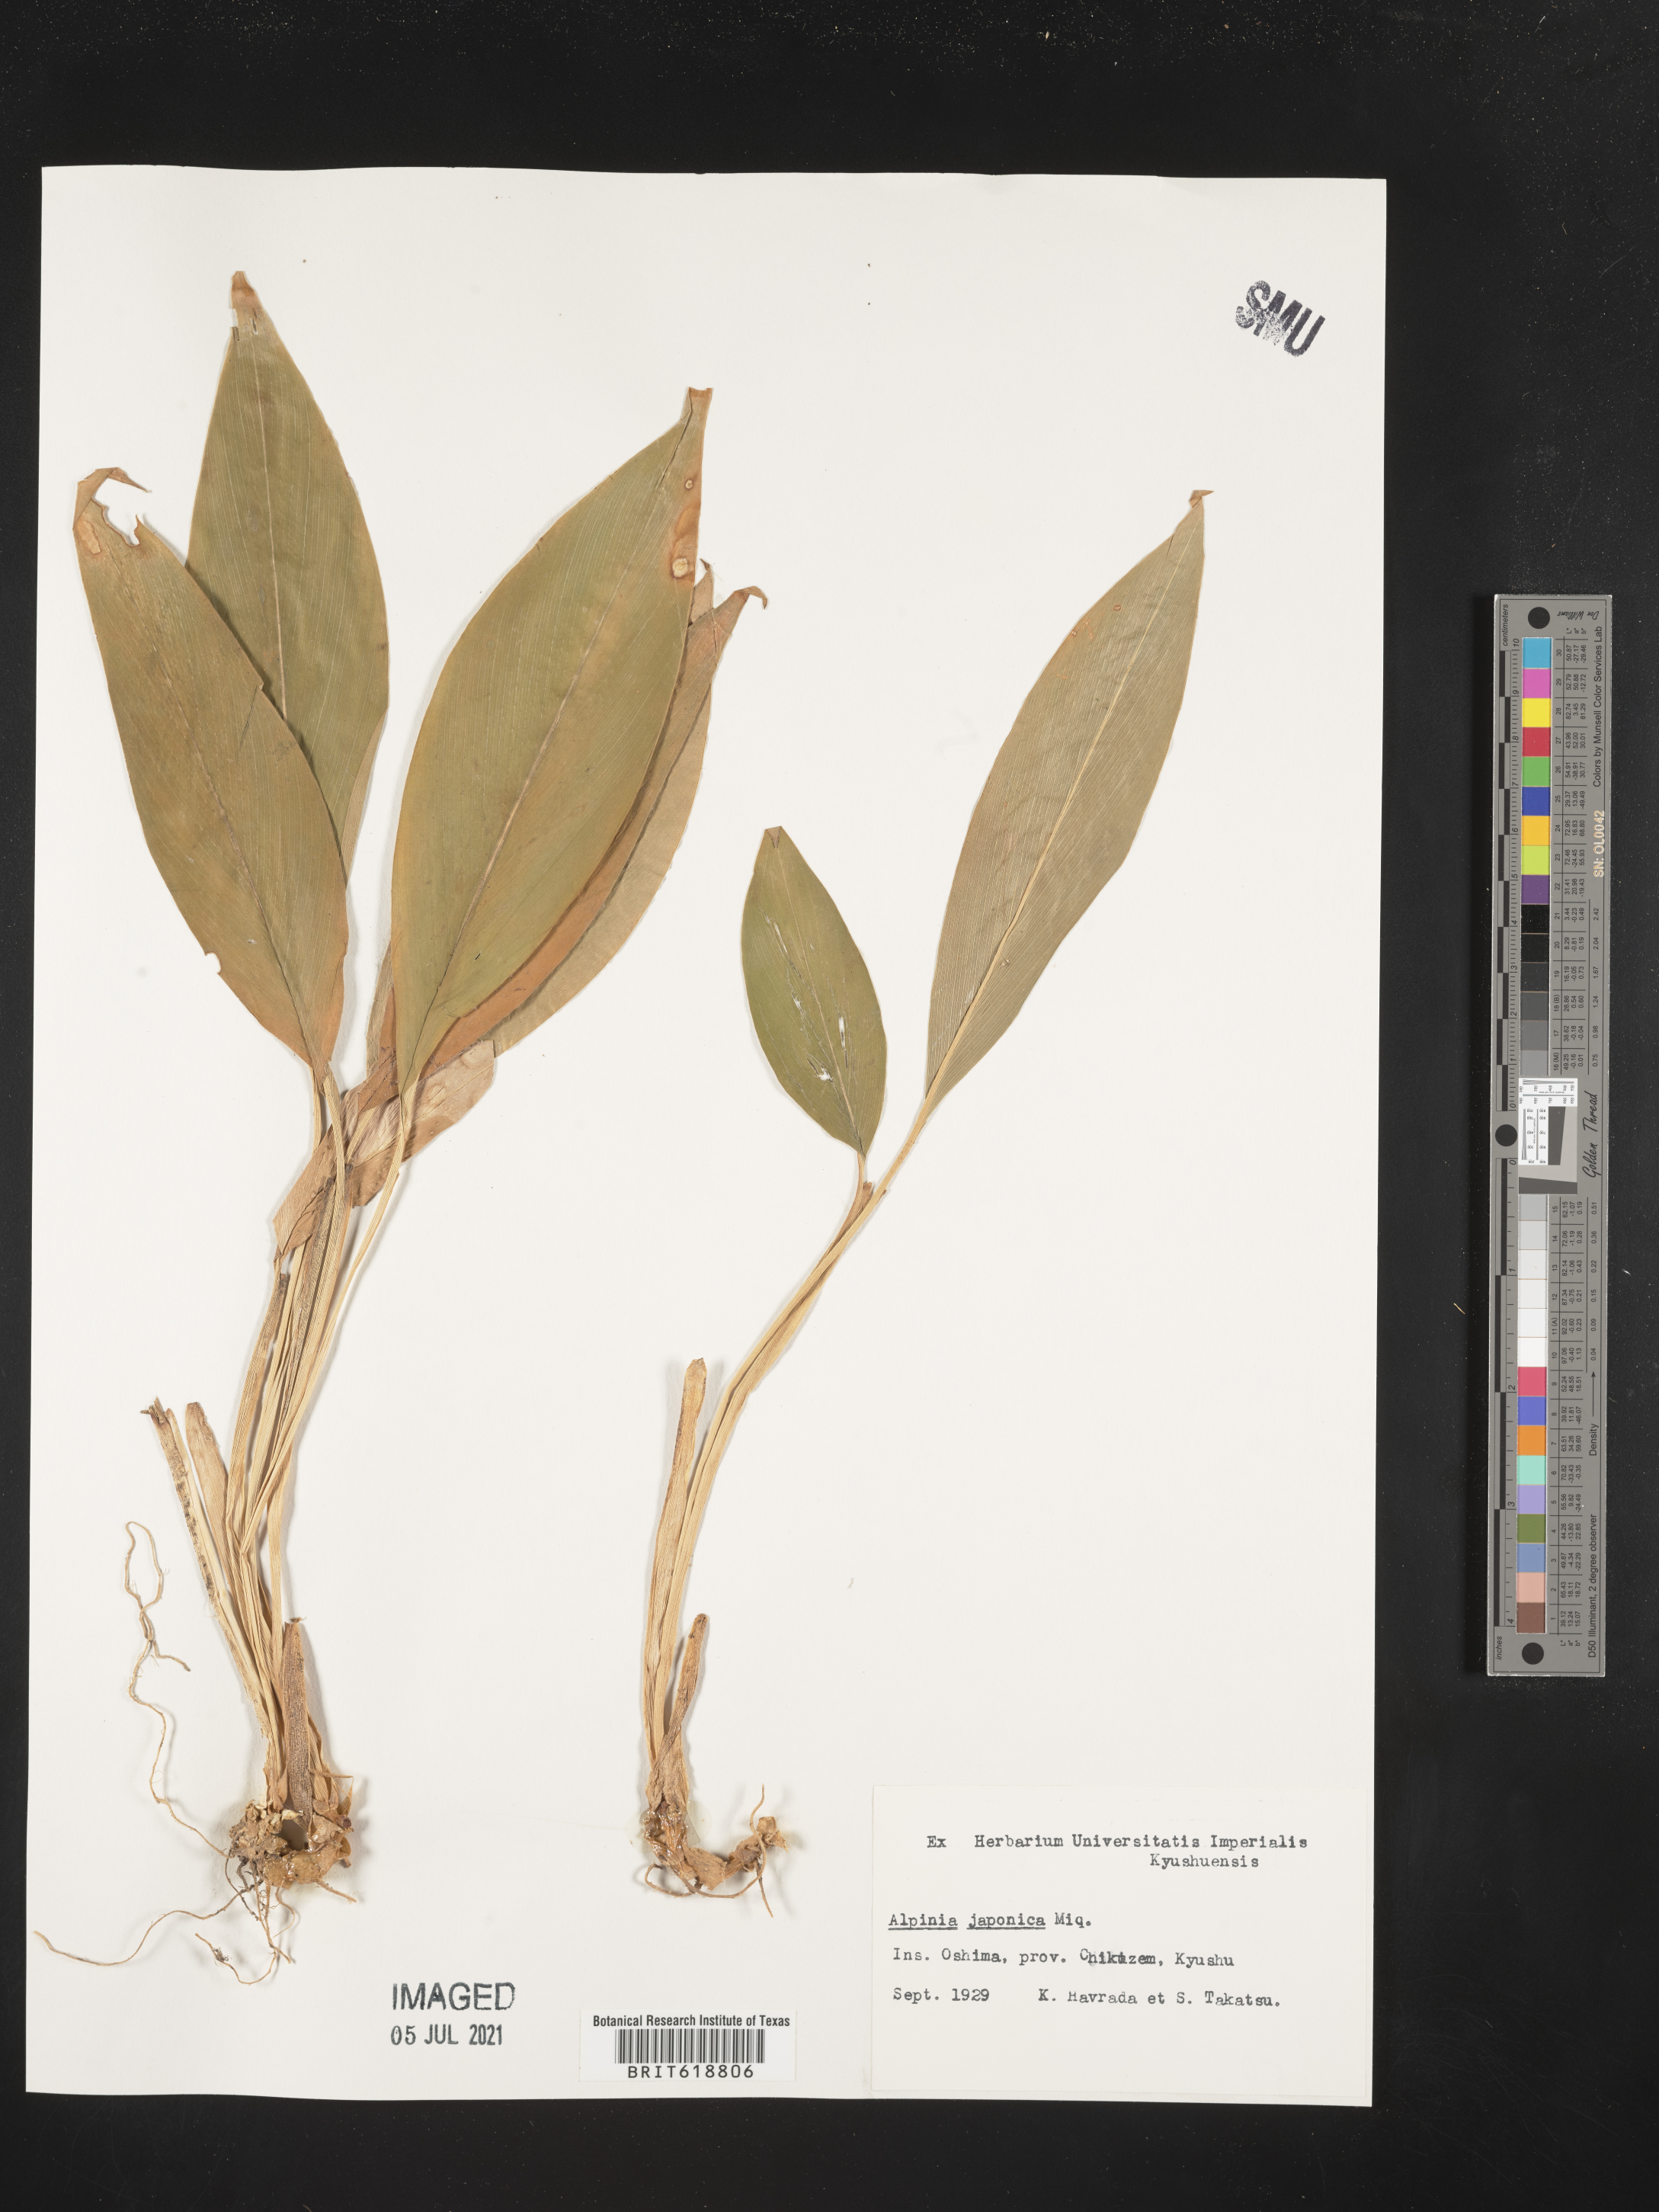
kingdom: Plantae
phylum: Tracheophyta
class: Liliopsida
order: Zingiberales
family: Zingiberaceae
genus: Alpinia
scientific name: Alpinia japonica
